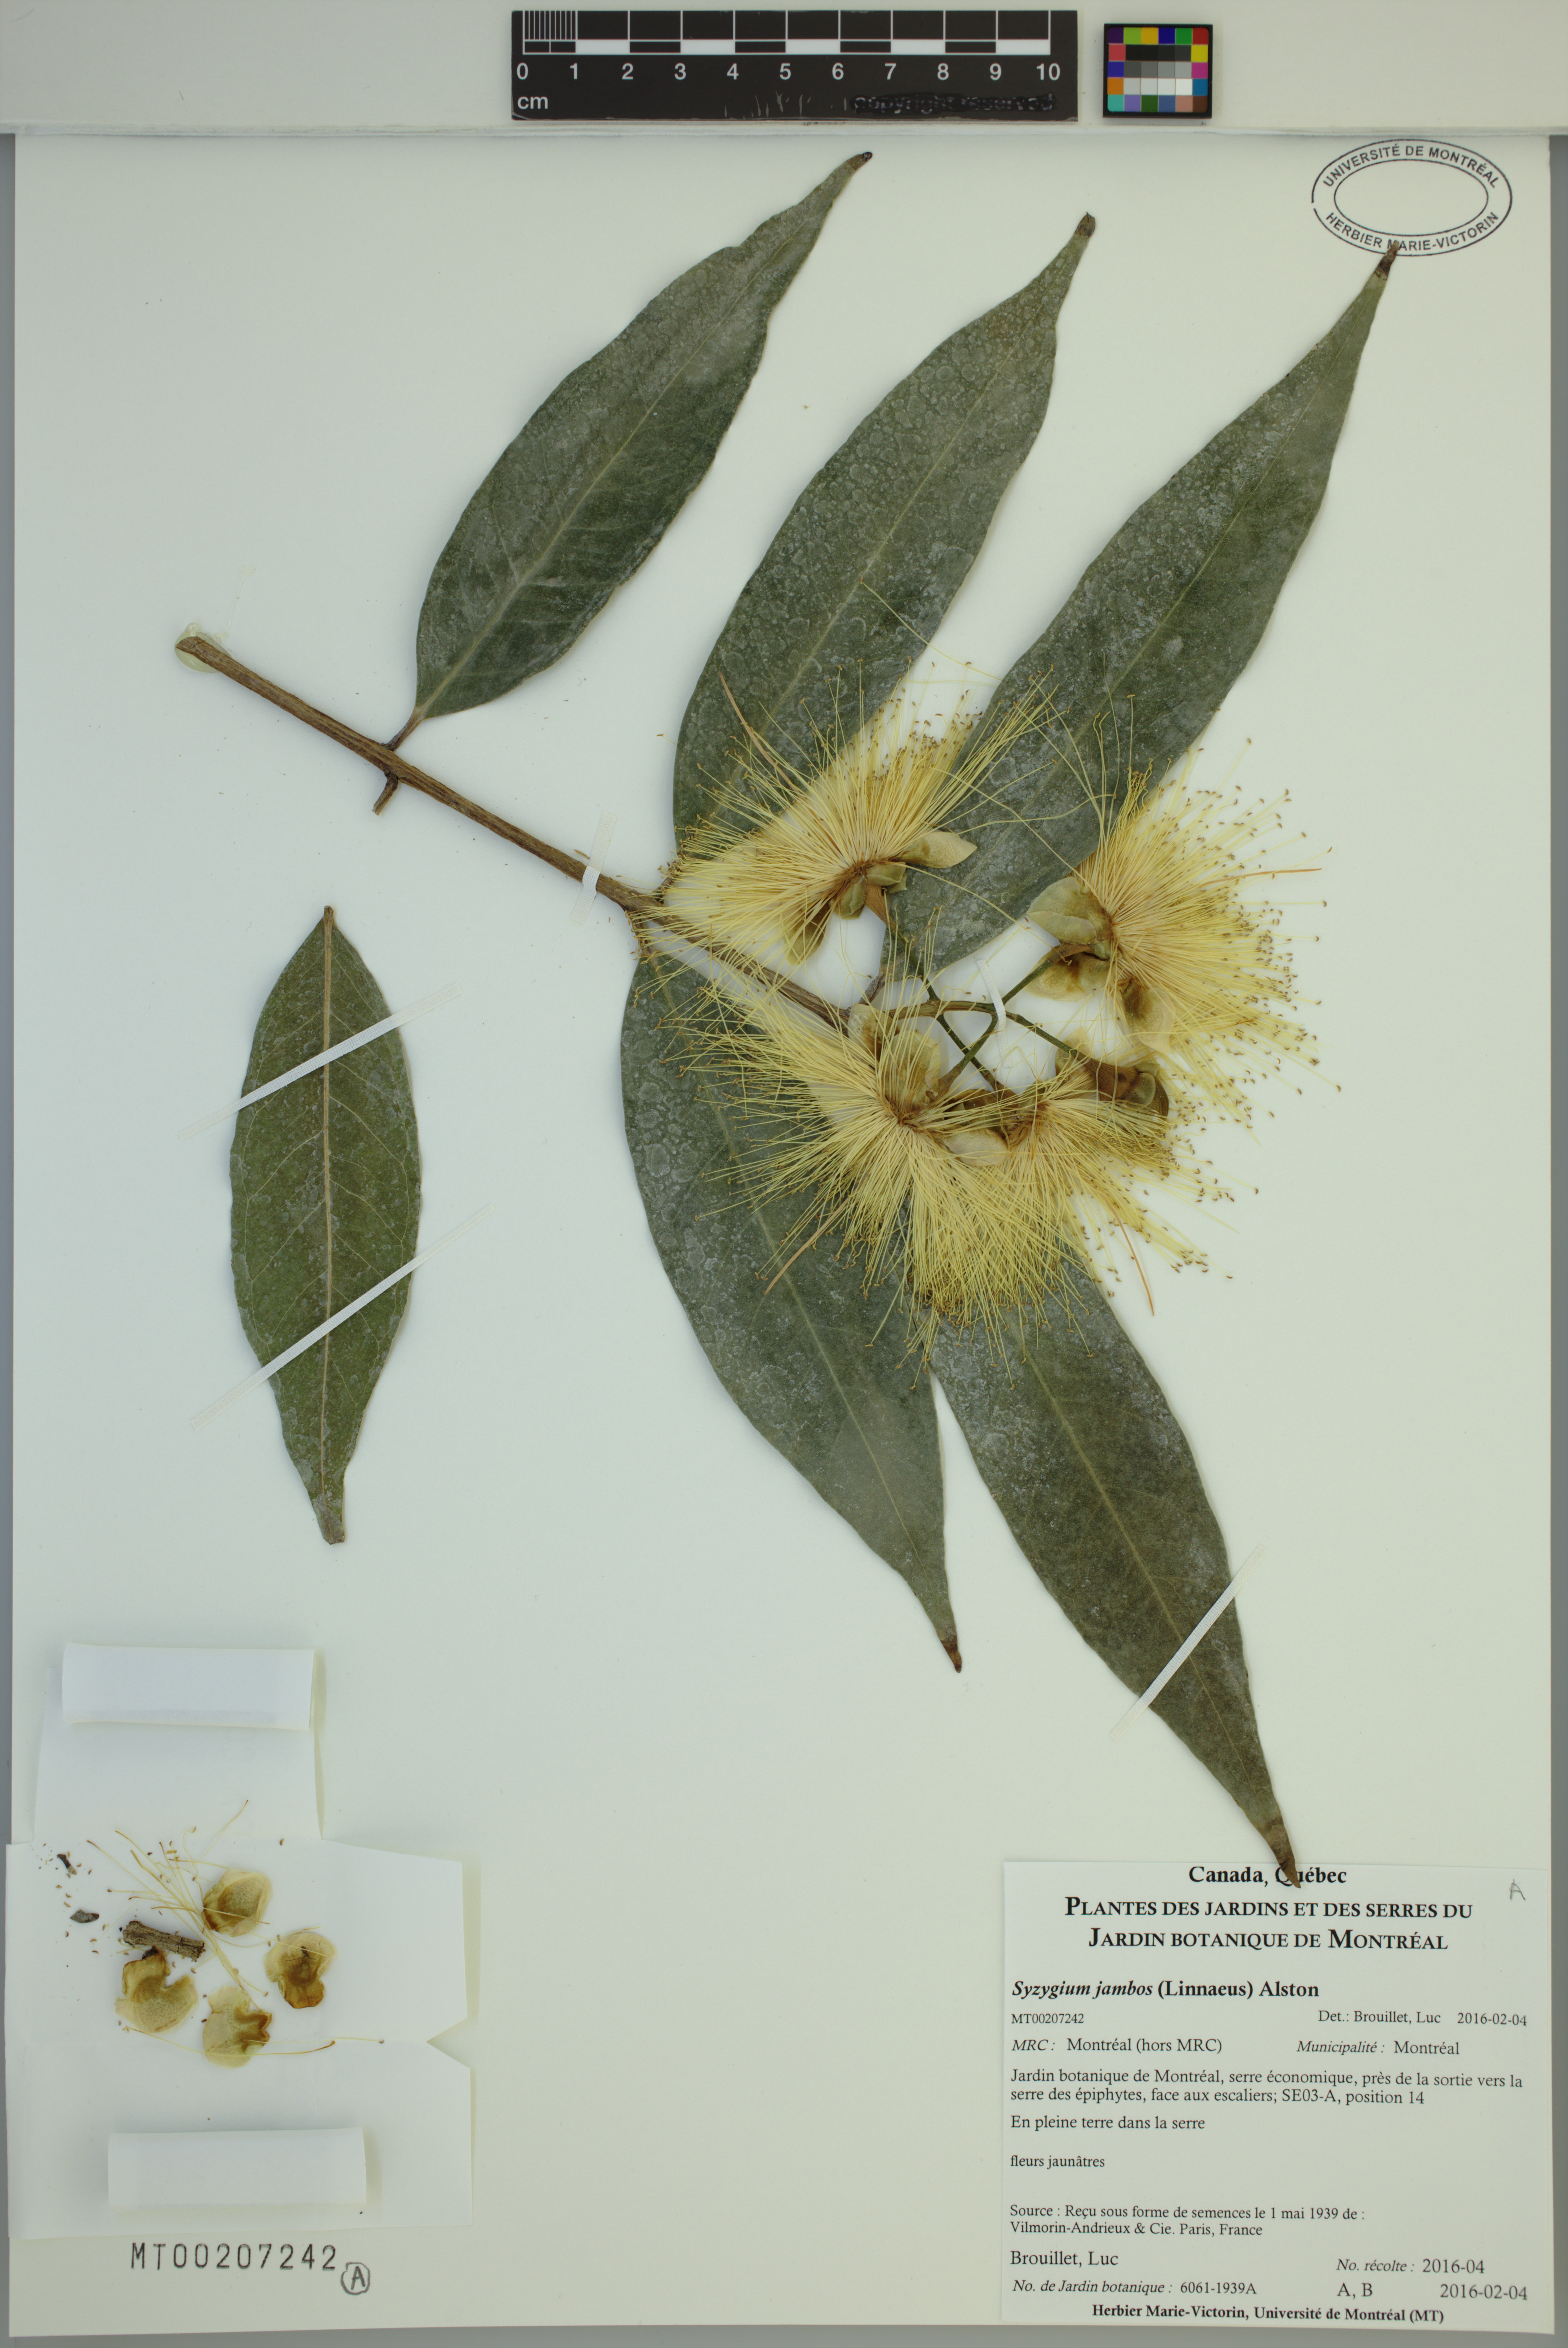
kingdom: Plantae
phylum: Tracheophyta
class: Magnoliopsida
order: Myrtales
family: Myrtaceae
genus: Syzygium
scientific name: Syzygium jambos
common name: Malabar plum
